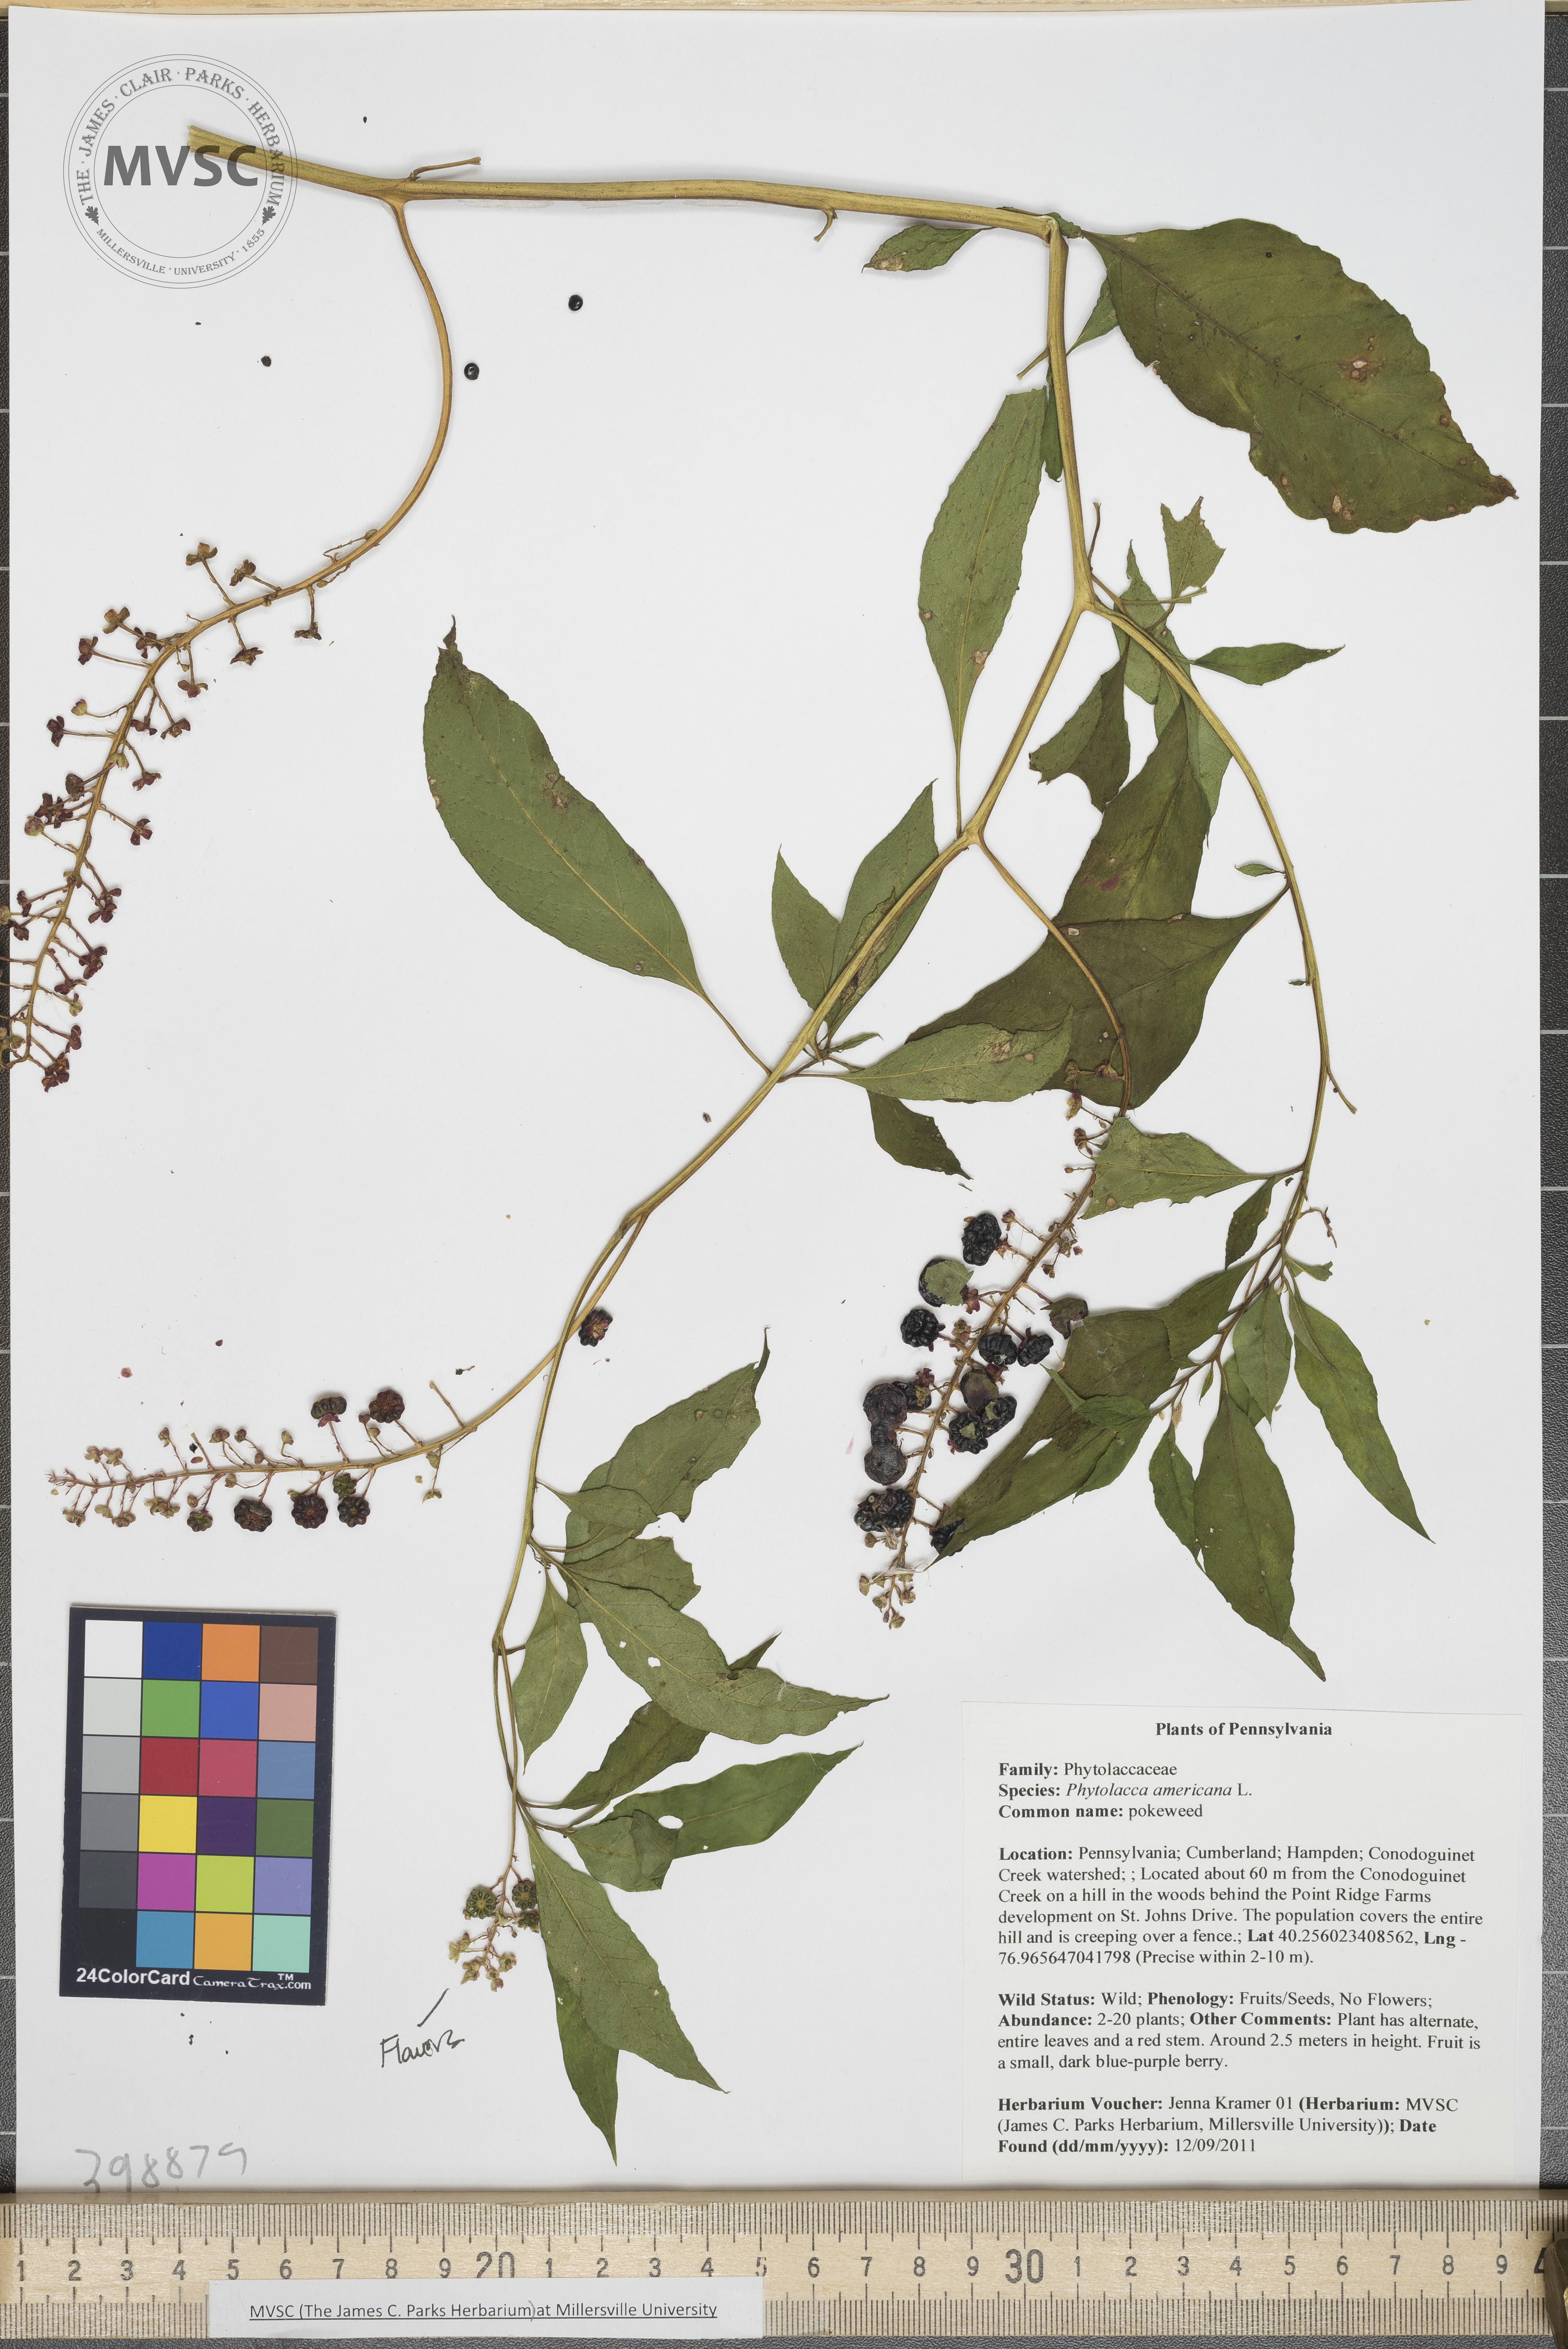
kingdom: Plantae
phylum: Tracheophyta
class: Magnoliopsida
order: Caryophyllales
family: Phytolaccaceae
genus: Phytolacca
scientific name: Phytolacca americana
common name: Pokeweed
